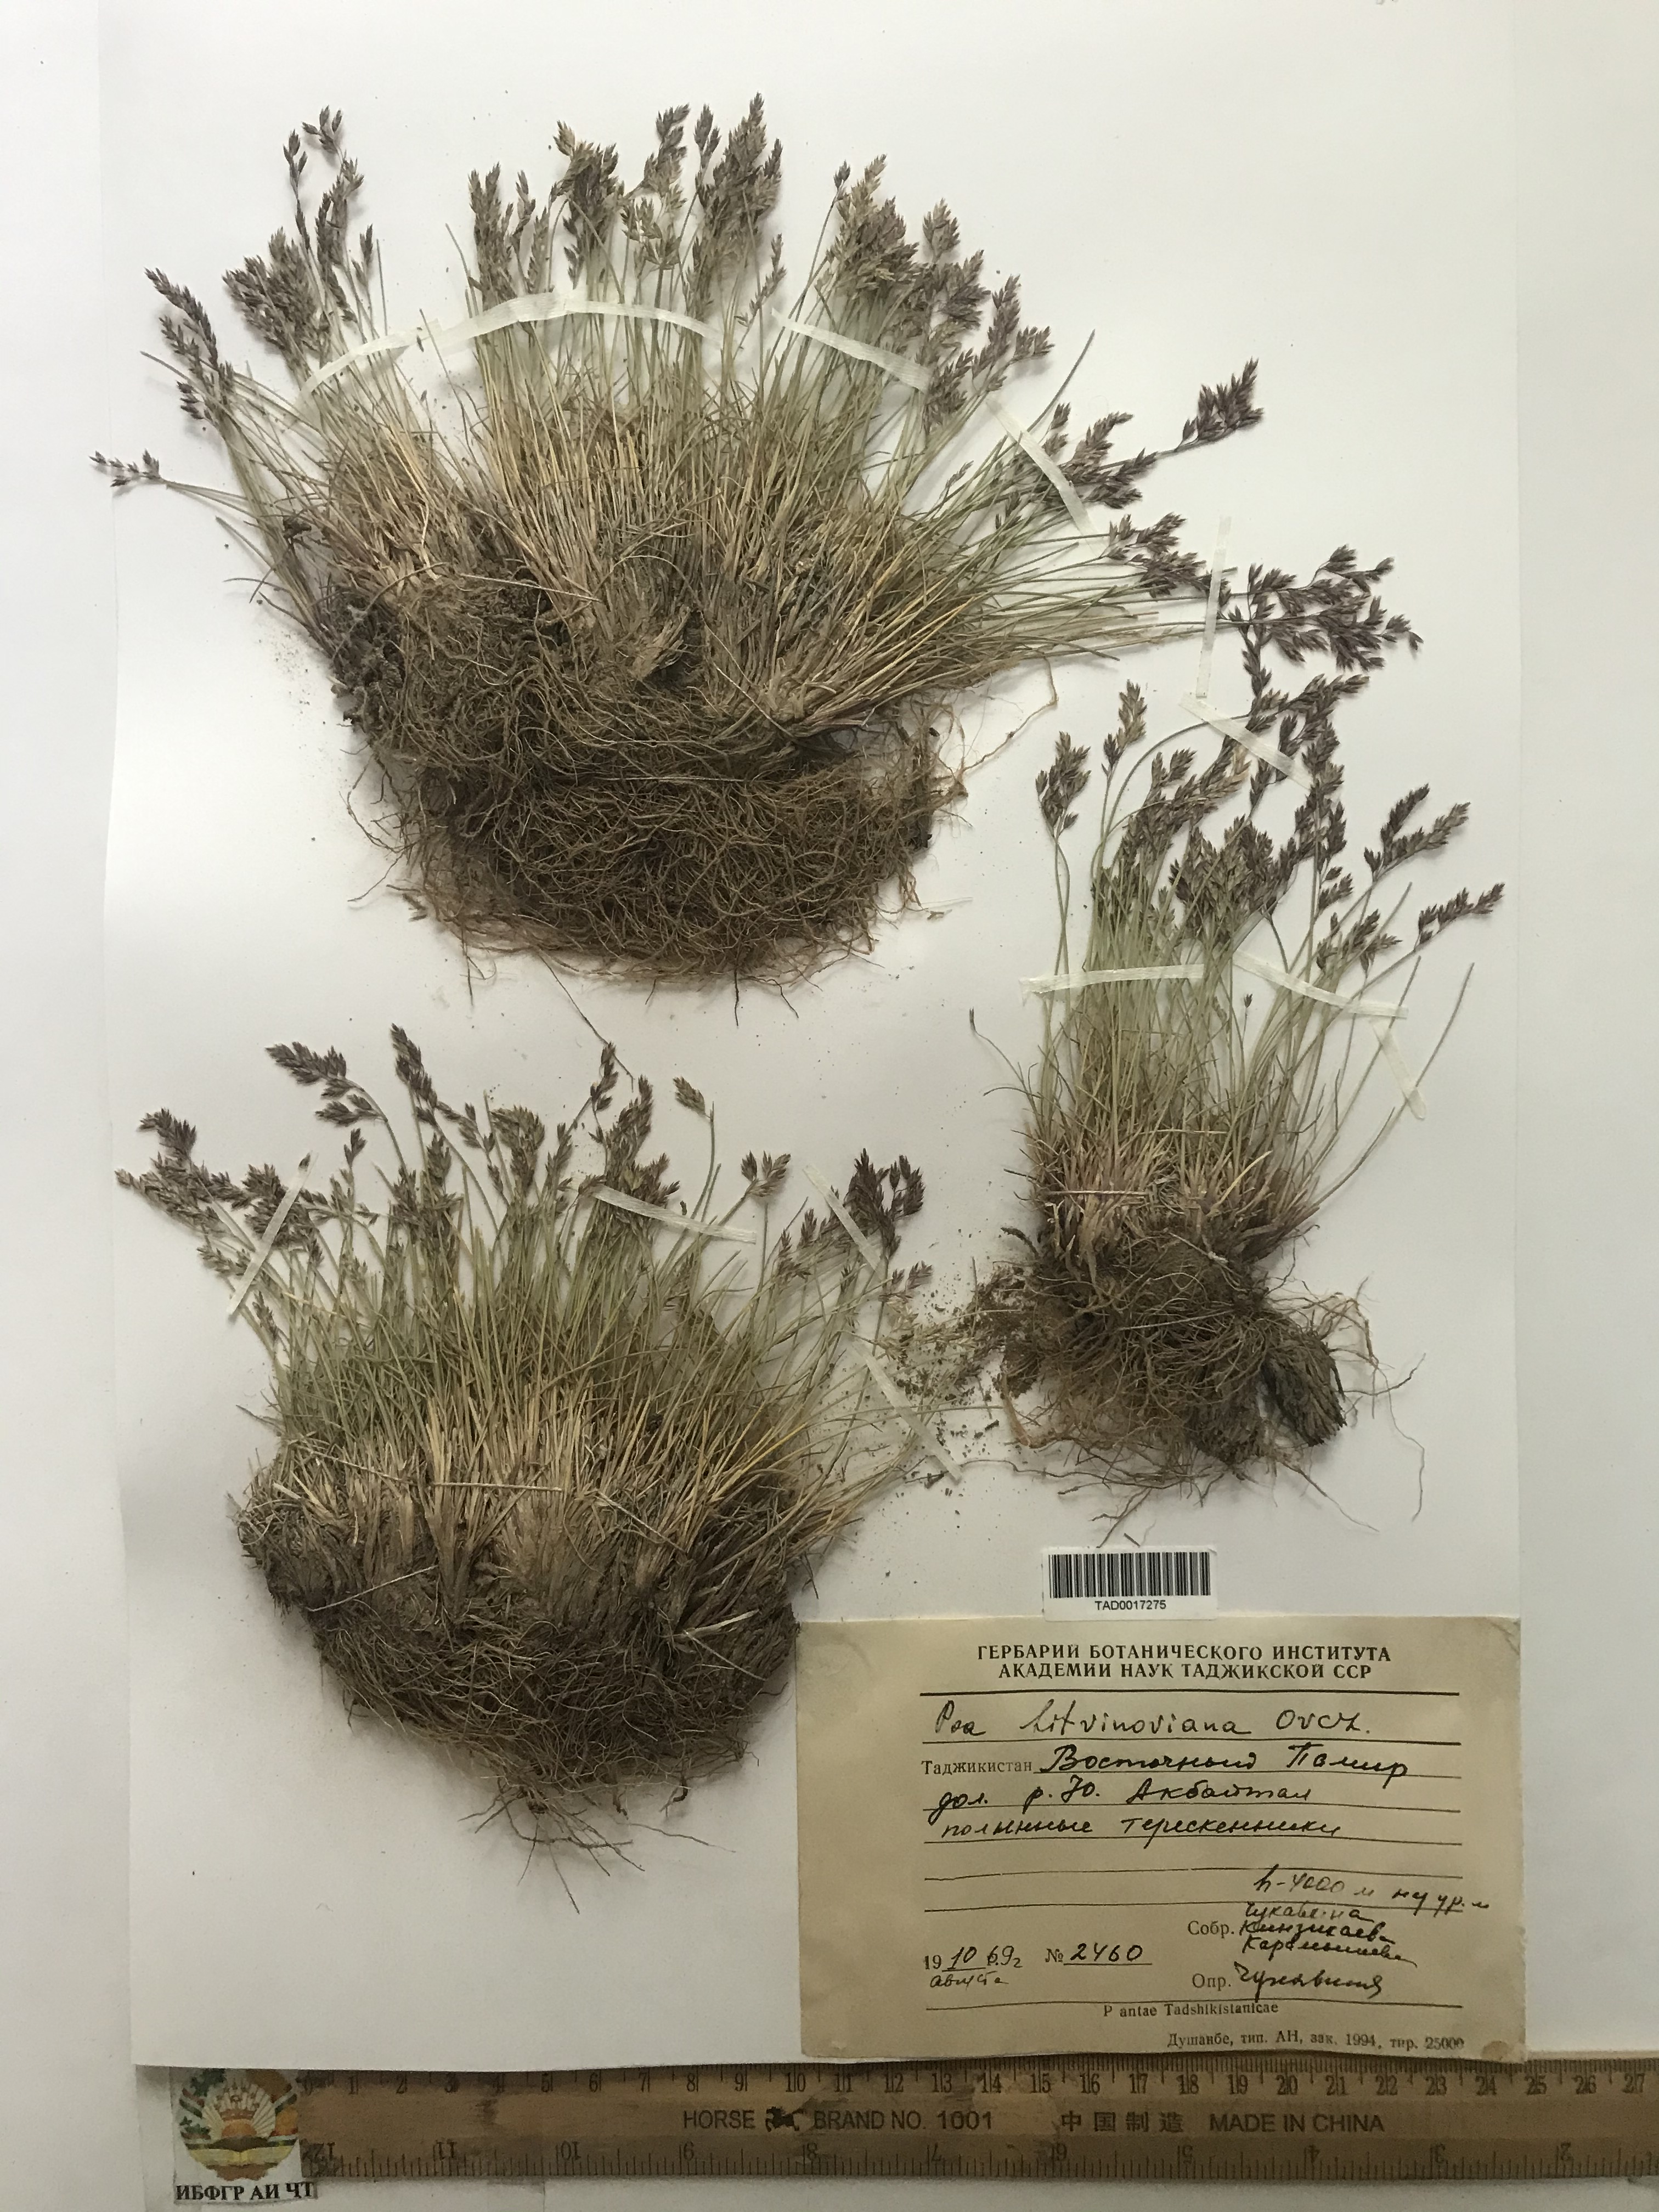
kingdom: Plantae
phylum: Tracheophyta
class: Liliopsida
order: Poales
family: Poaceae
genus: Poa
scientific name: Poa glauca
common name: Glaucous bluegrass
